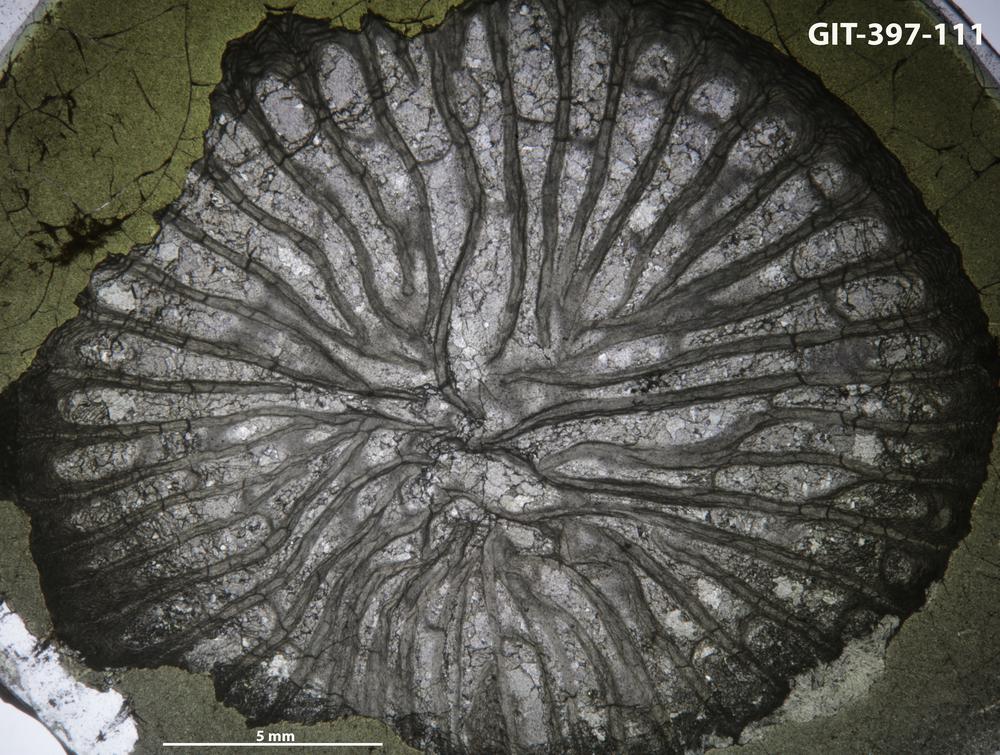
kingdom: Animalia
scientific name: Animalia
